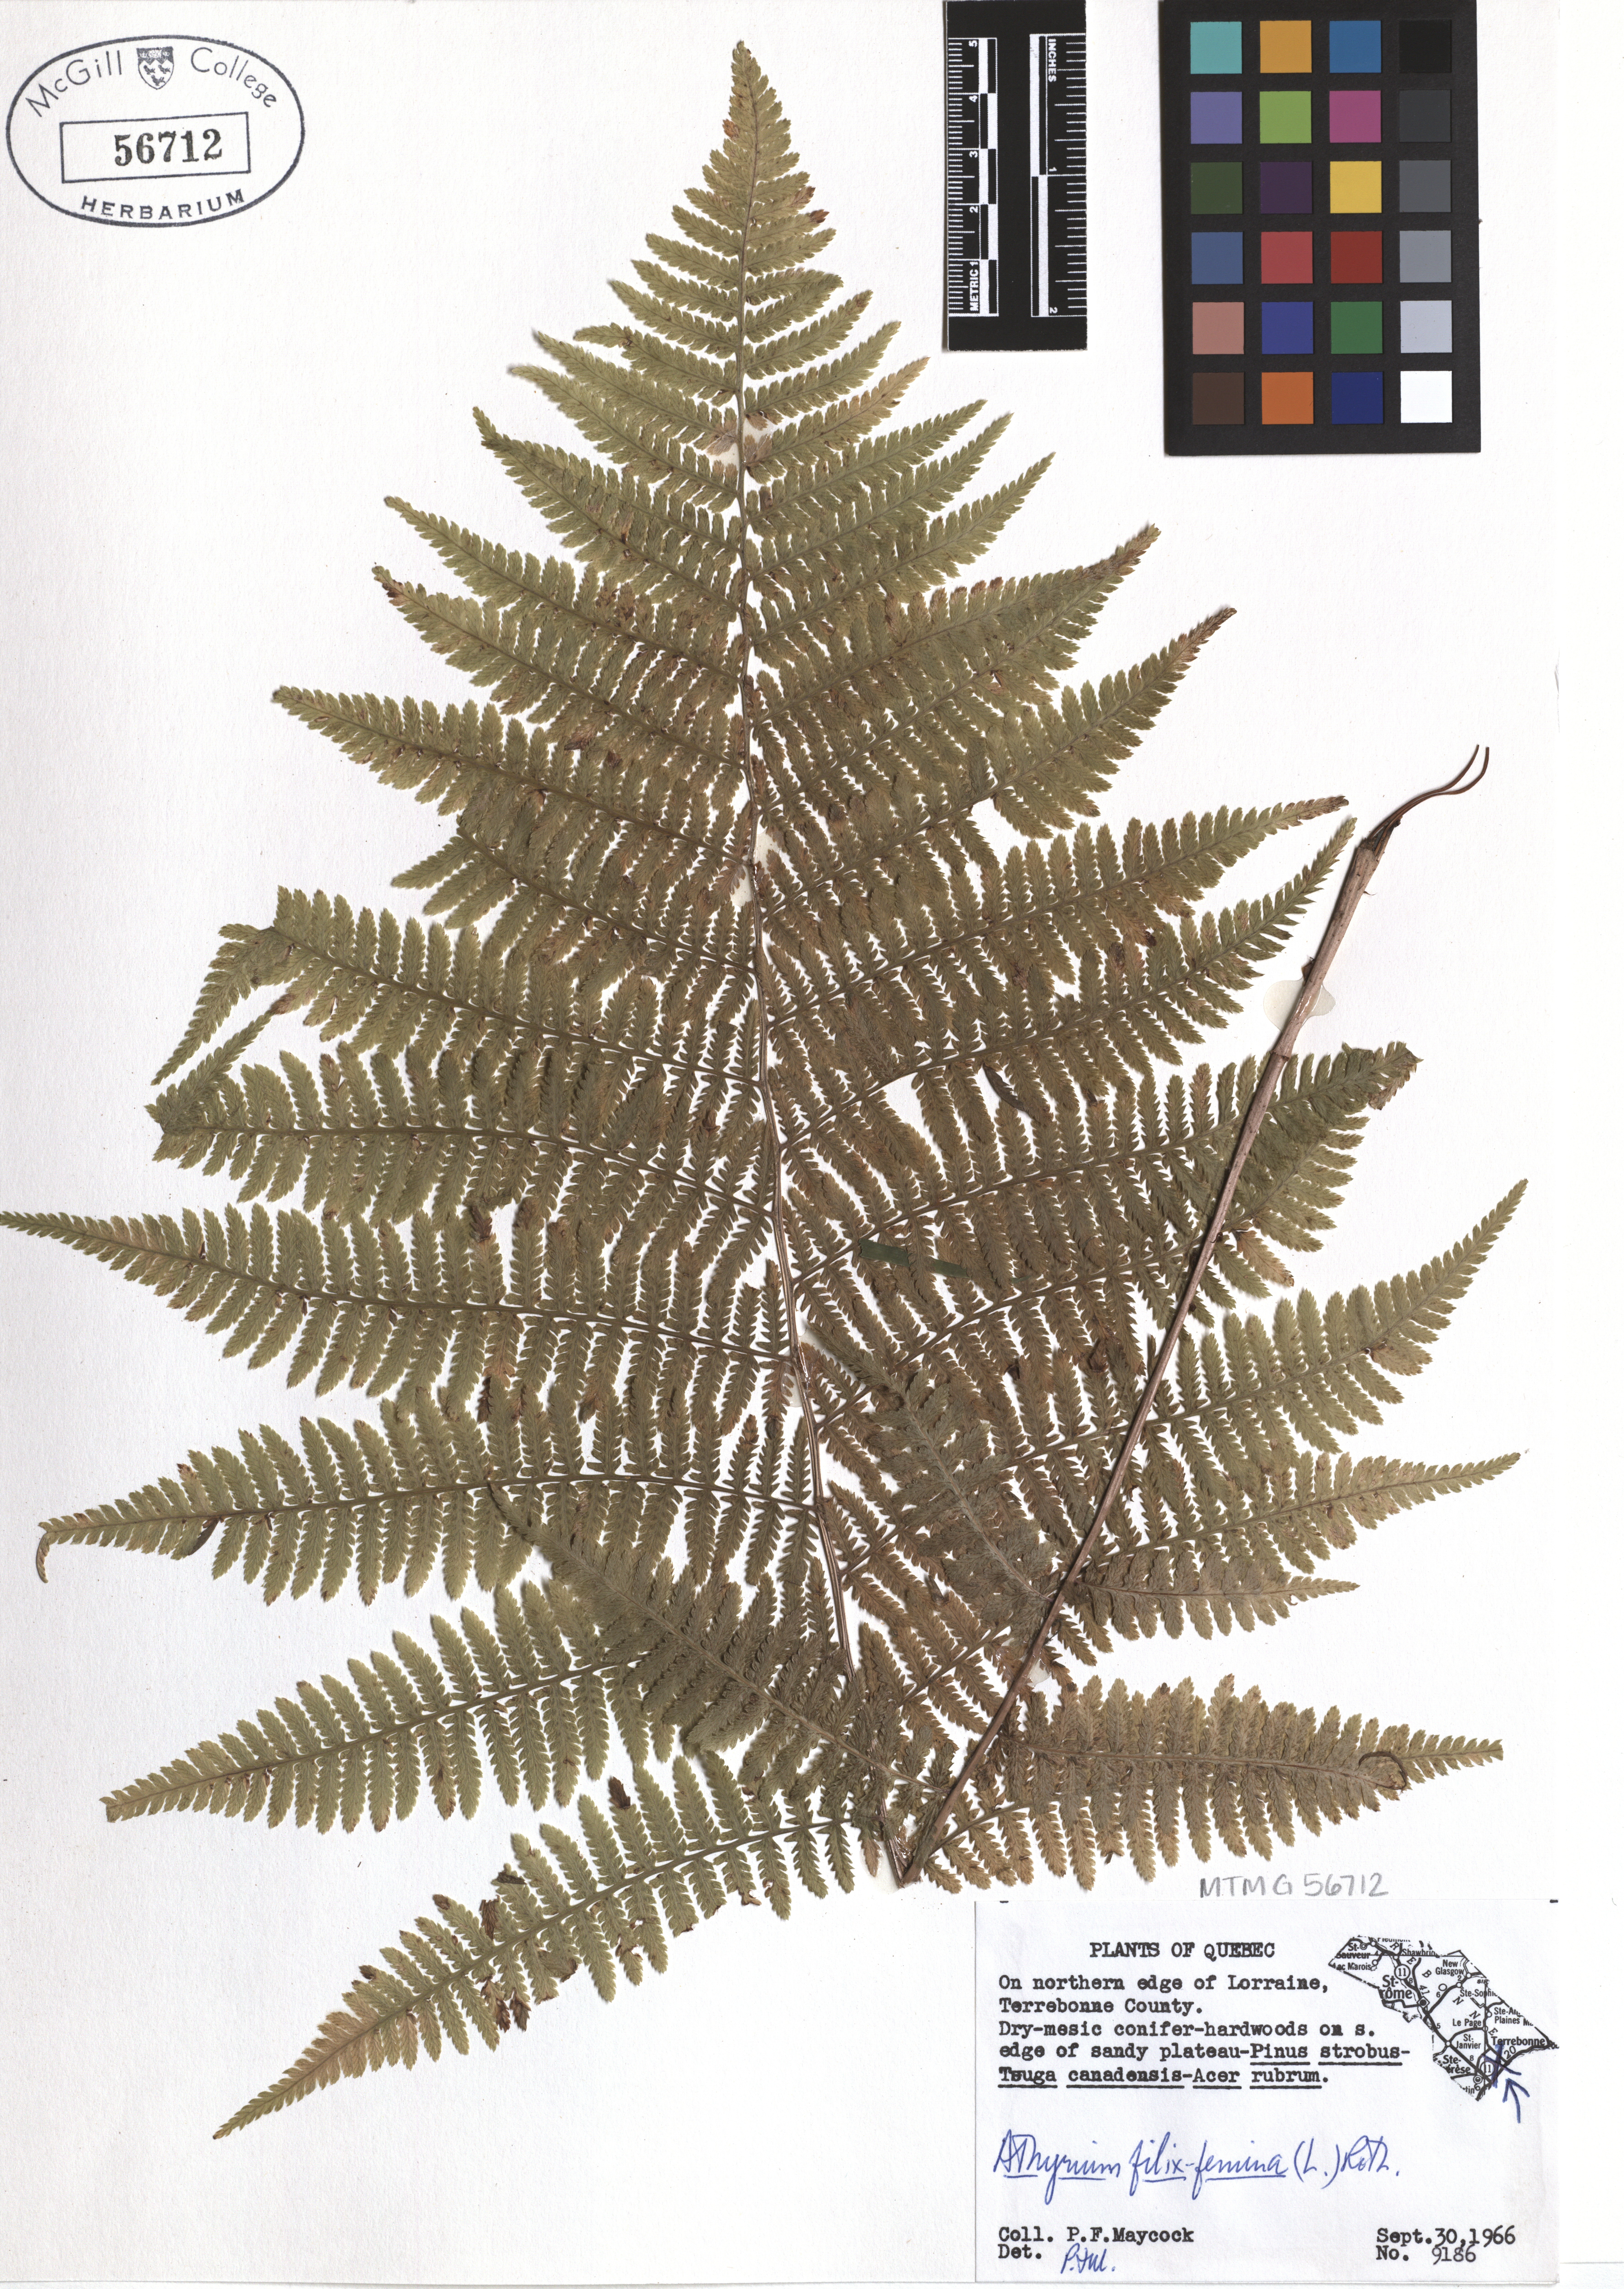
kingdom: Plantae
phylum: Tracheophyta
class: Polypodiopsida
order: Polypodiales
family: Athyriaceae
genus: Athyrium
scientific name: Athyrium filix-femina
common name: Lady fern
